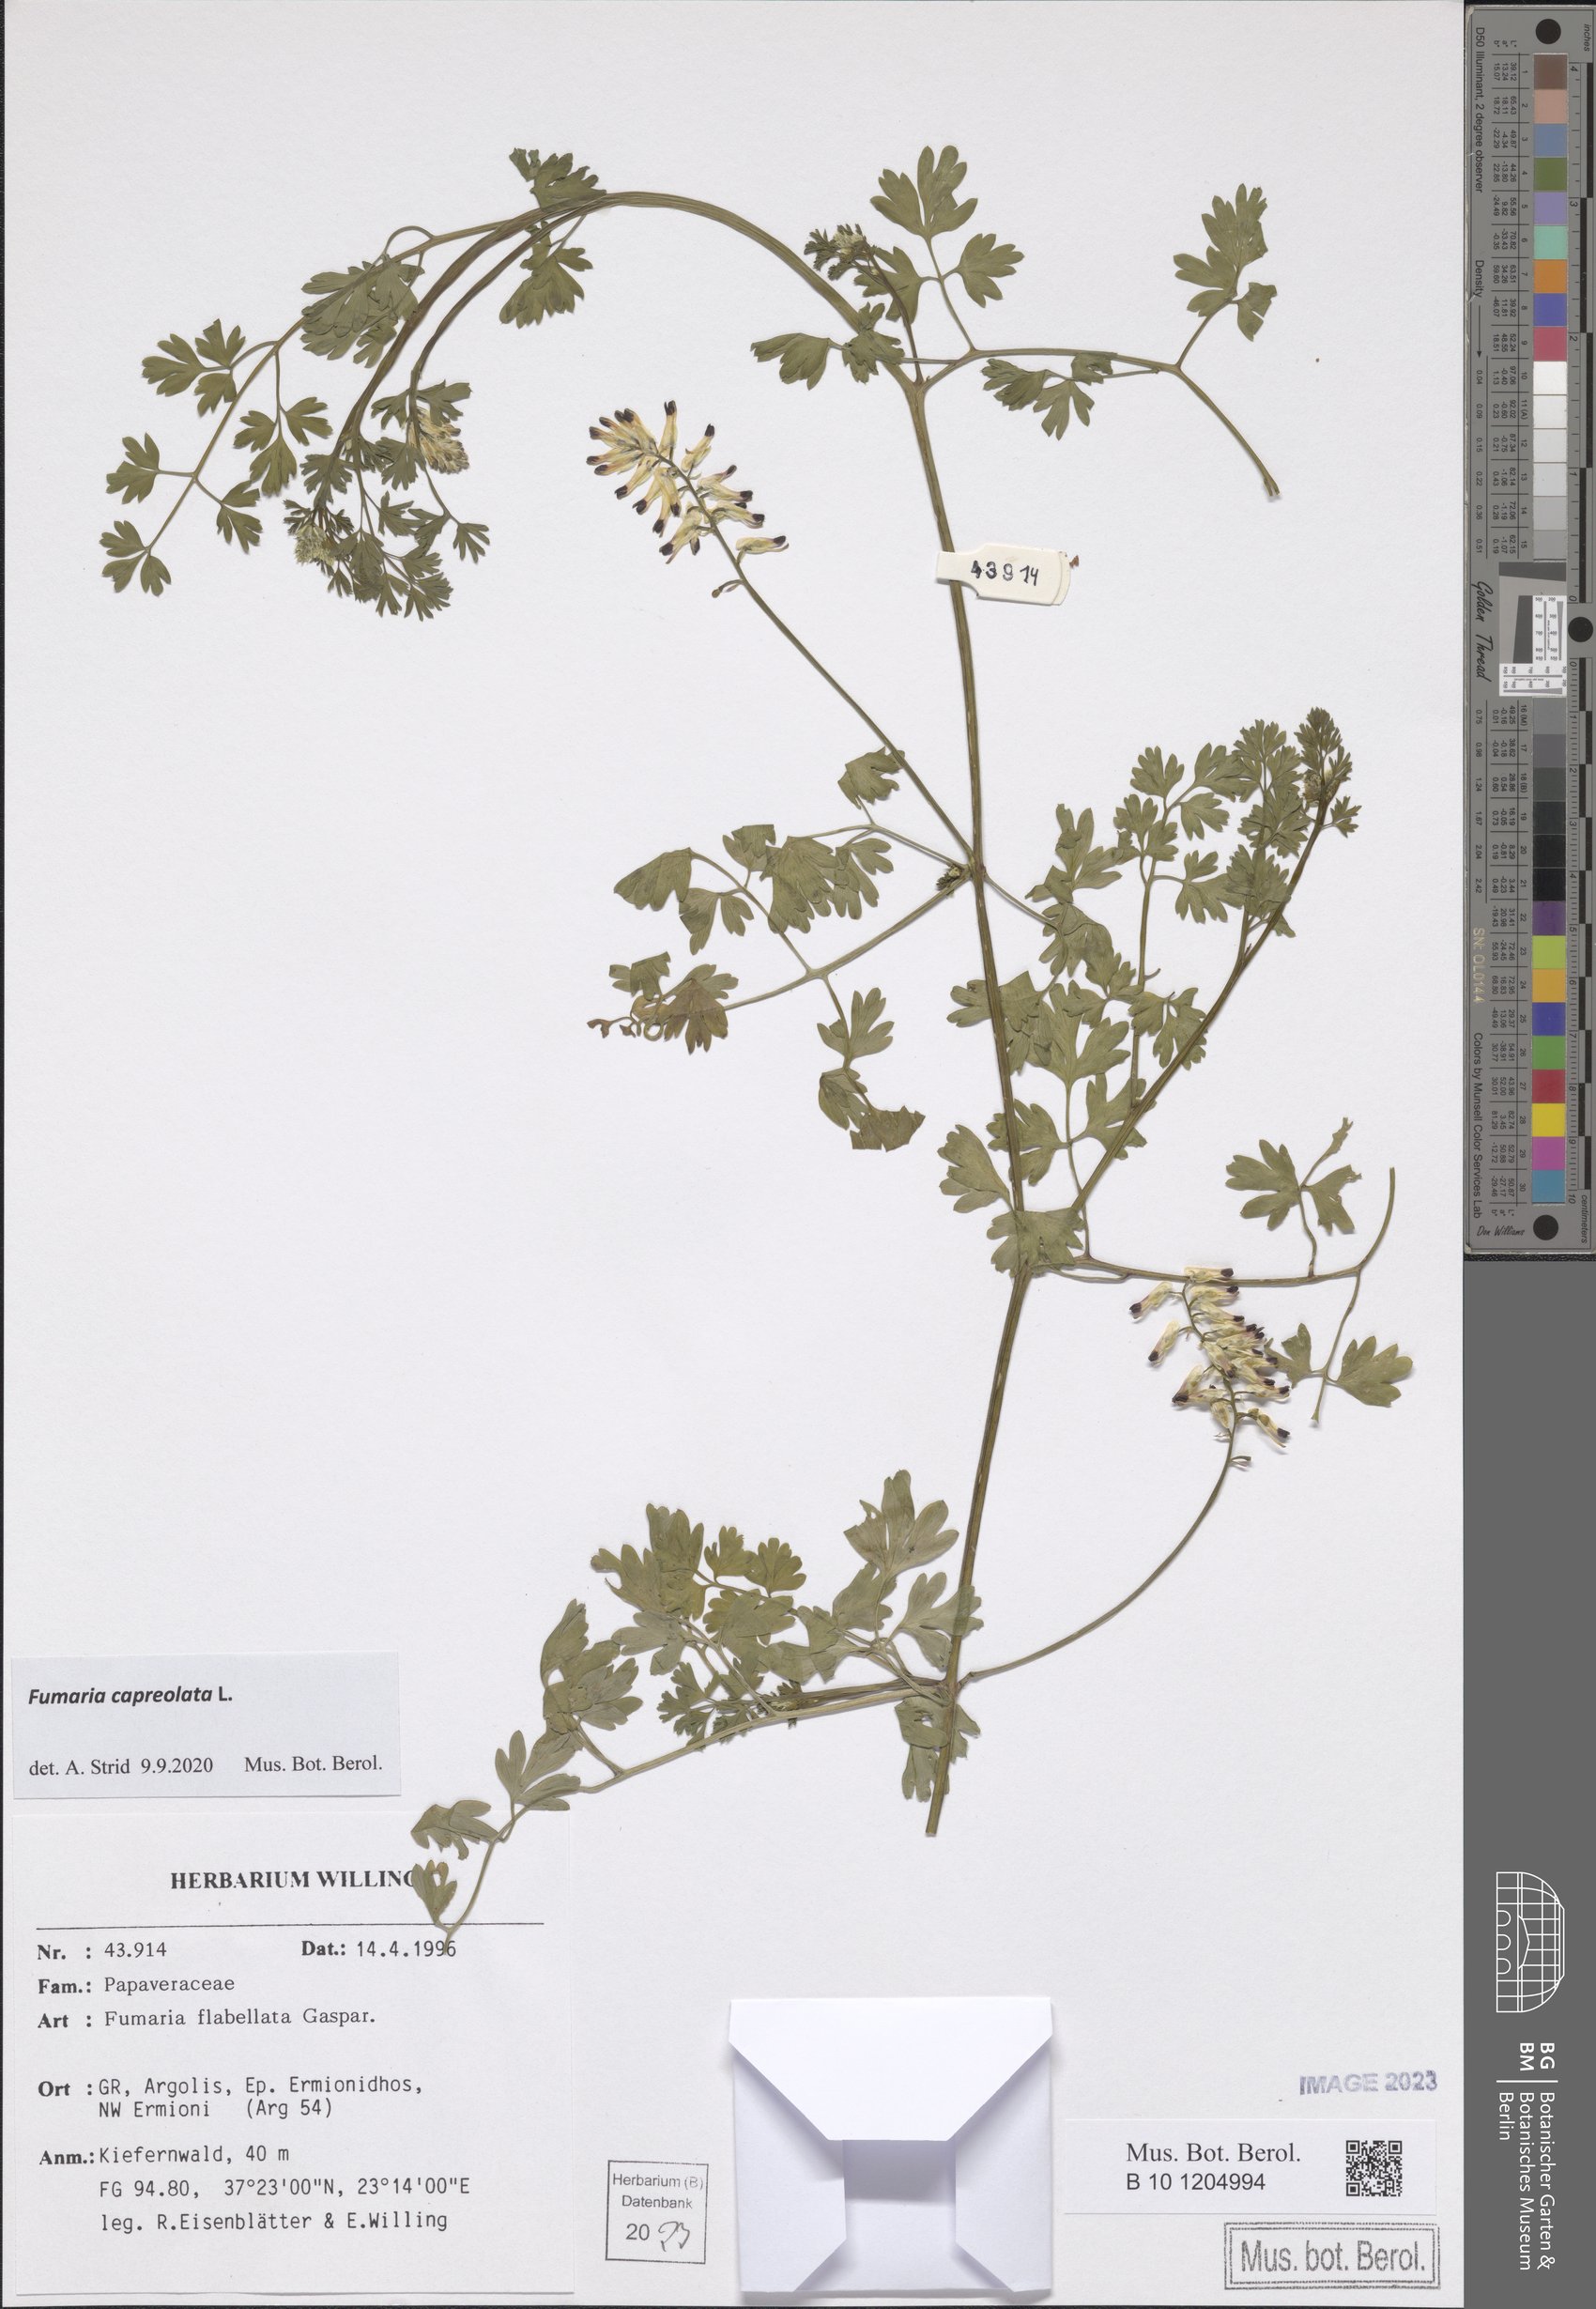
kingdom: Plantae
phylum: Tracheophyta
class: Magnoliopsida
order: Ranunculales
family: Papaveraceae
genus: Fumaria
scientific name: Fumaria capreolata
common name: White ramping-fumitory
